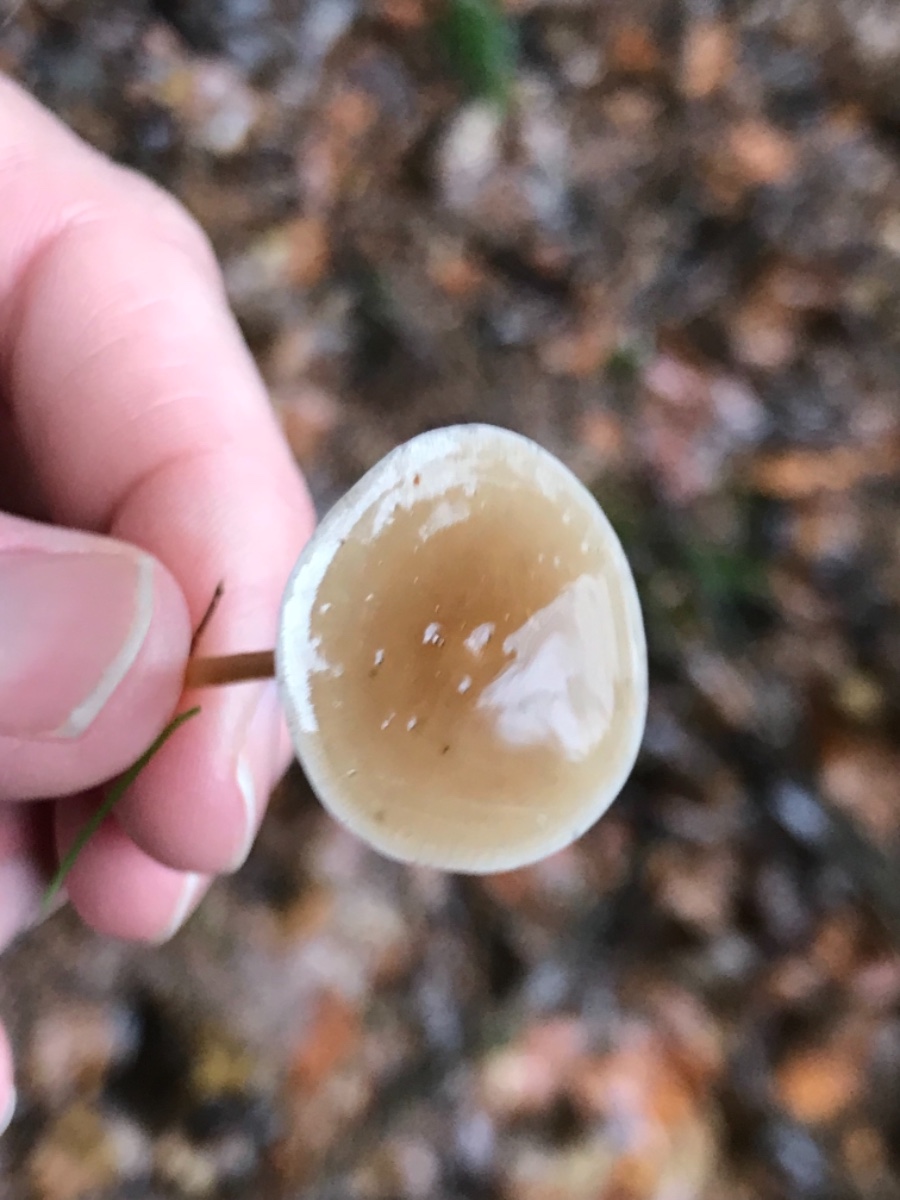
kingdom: Fungi
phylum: Basidiomycota
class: Agaricomycetes
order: Agaricales
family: Physalacriaceae
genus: Strobilurus
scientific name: Strobilurus esculentus
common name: gran-koglehat
